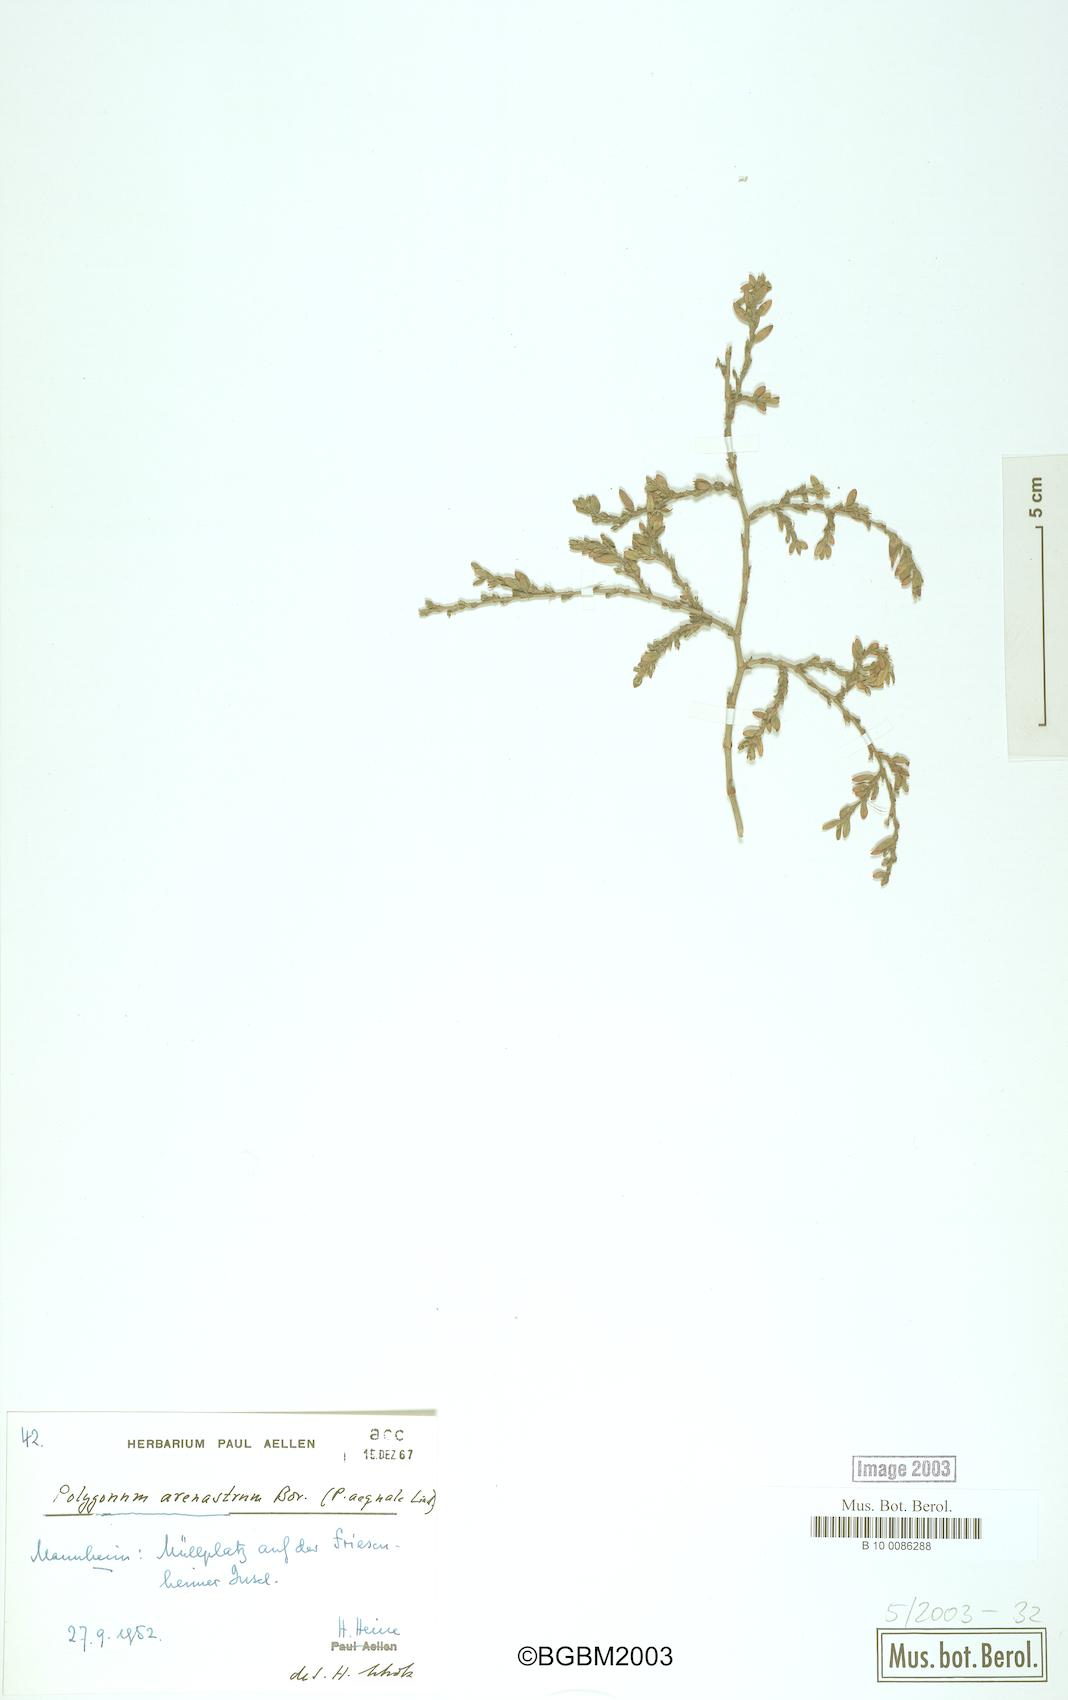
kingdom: Plantae
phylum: Tracheophyta
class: Magnoliopsida
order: Caryophyllales
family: Polygonaceae
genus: Polygonum
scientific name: Polygonum arenastrum
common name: Equal-leaved knotgrass
